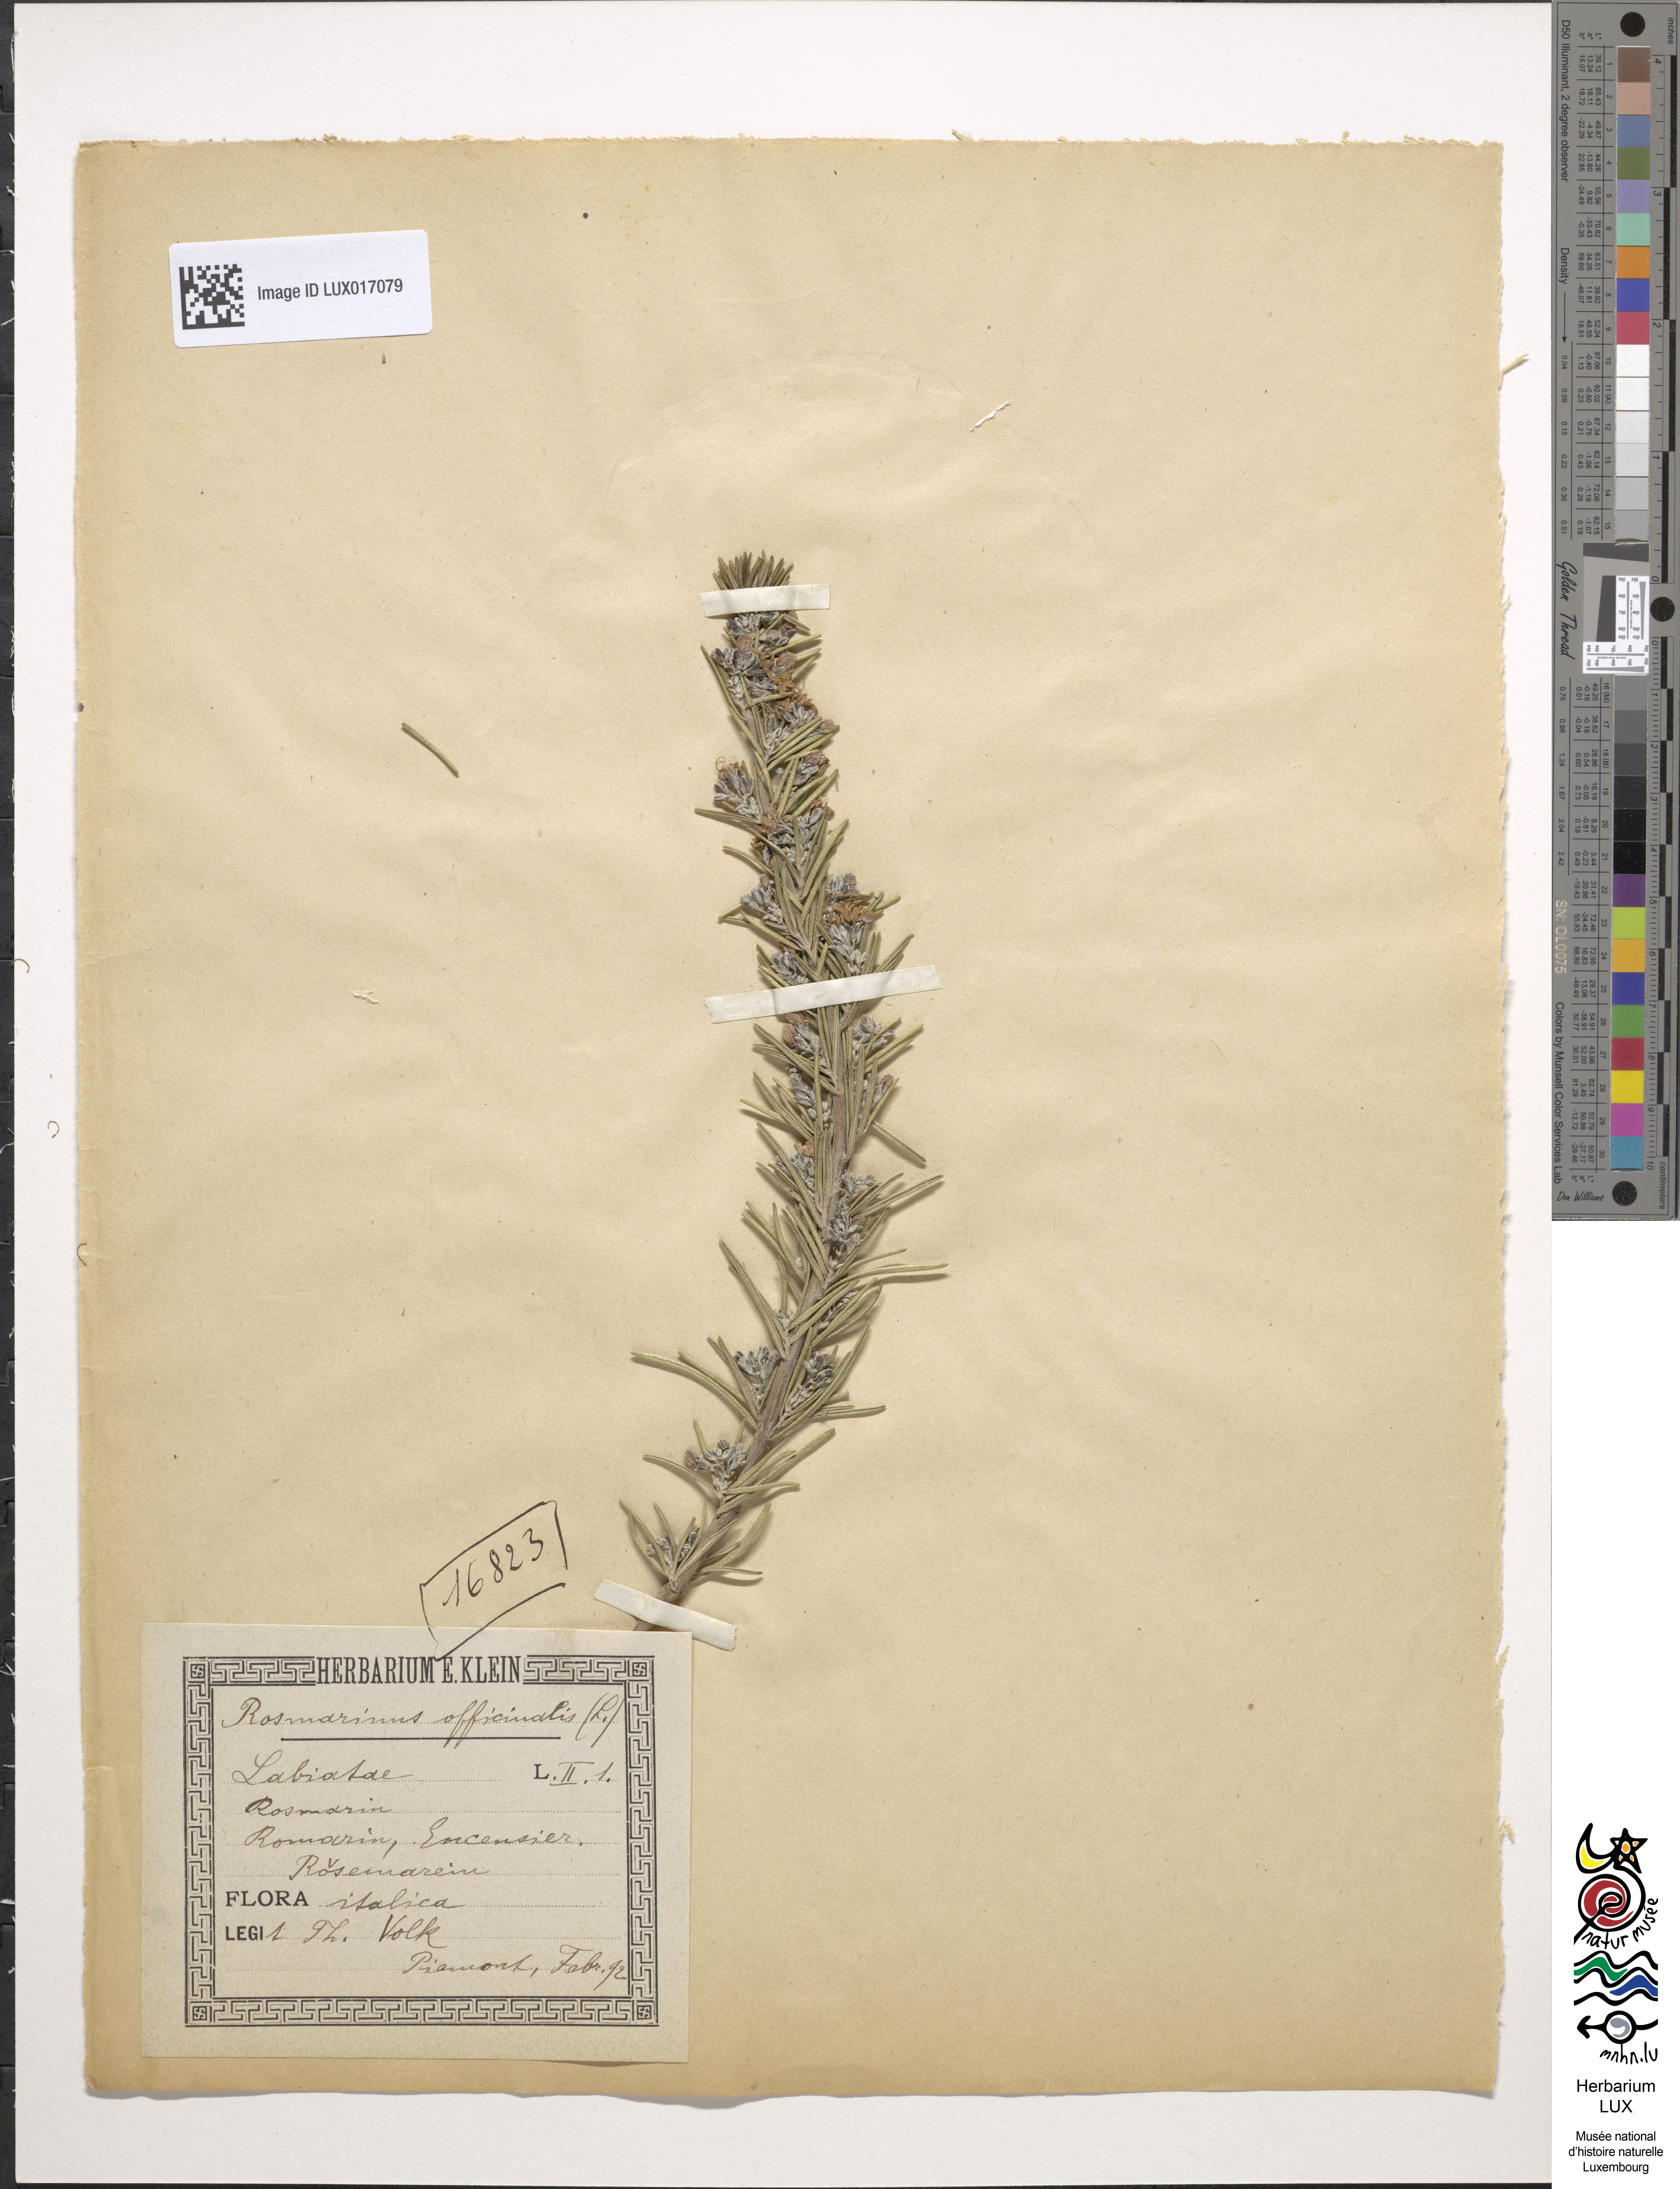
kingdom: Plantae
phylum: Tracheophyta
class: Magnoliopsida
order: Lamiales
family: Lamiaceae
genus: Salvia
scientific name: Salvia rosmarinus
